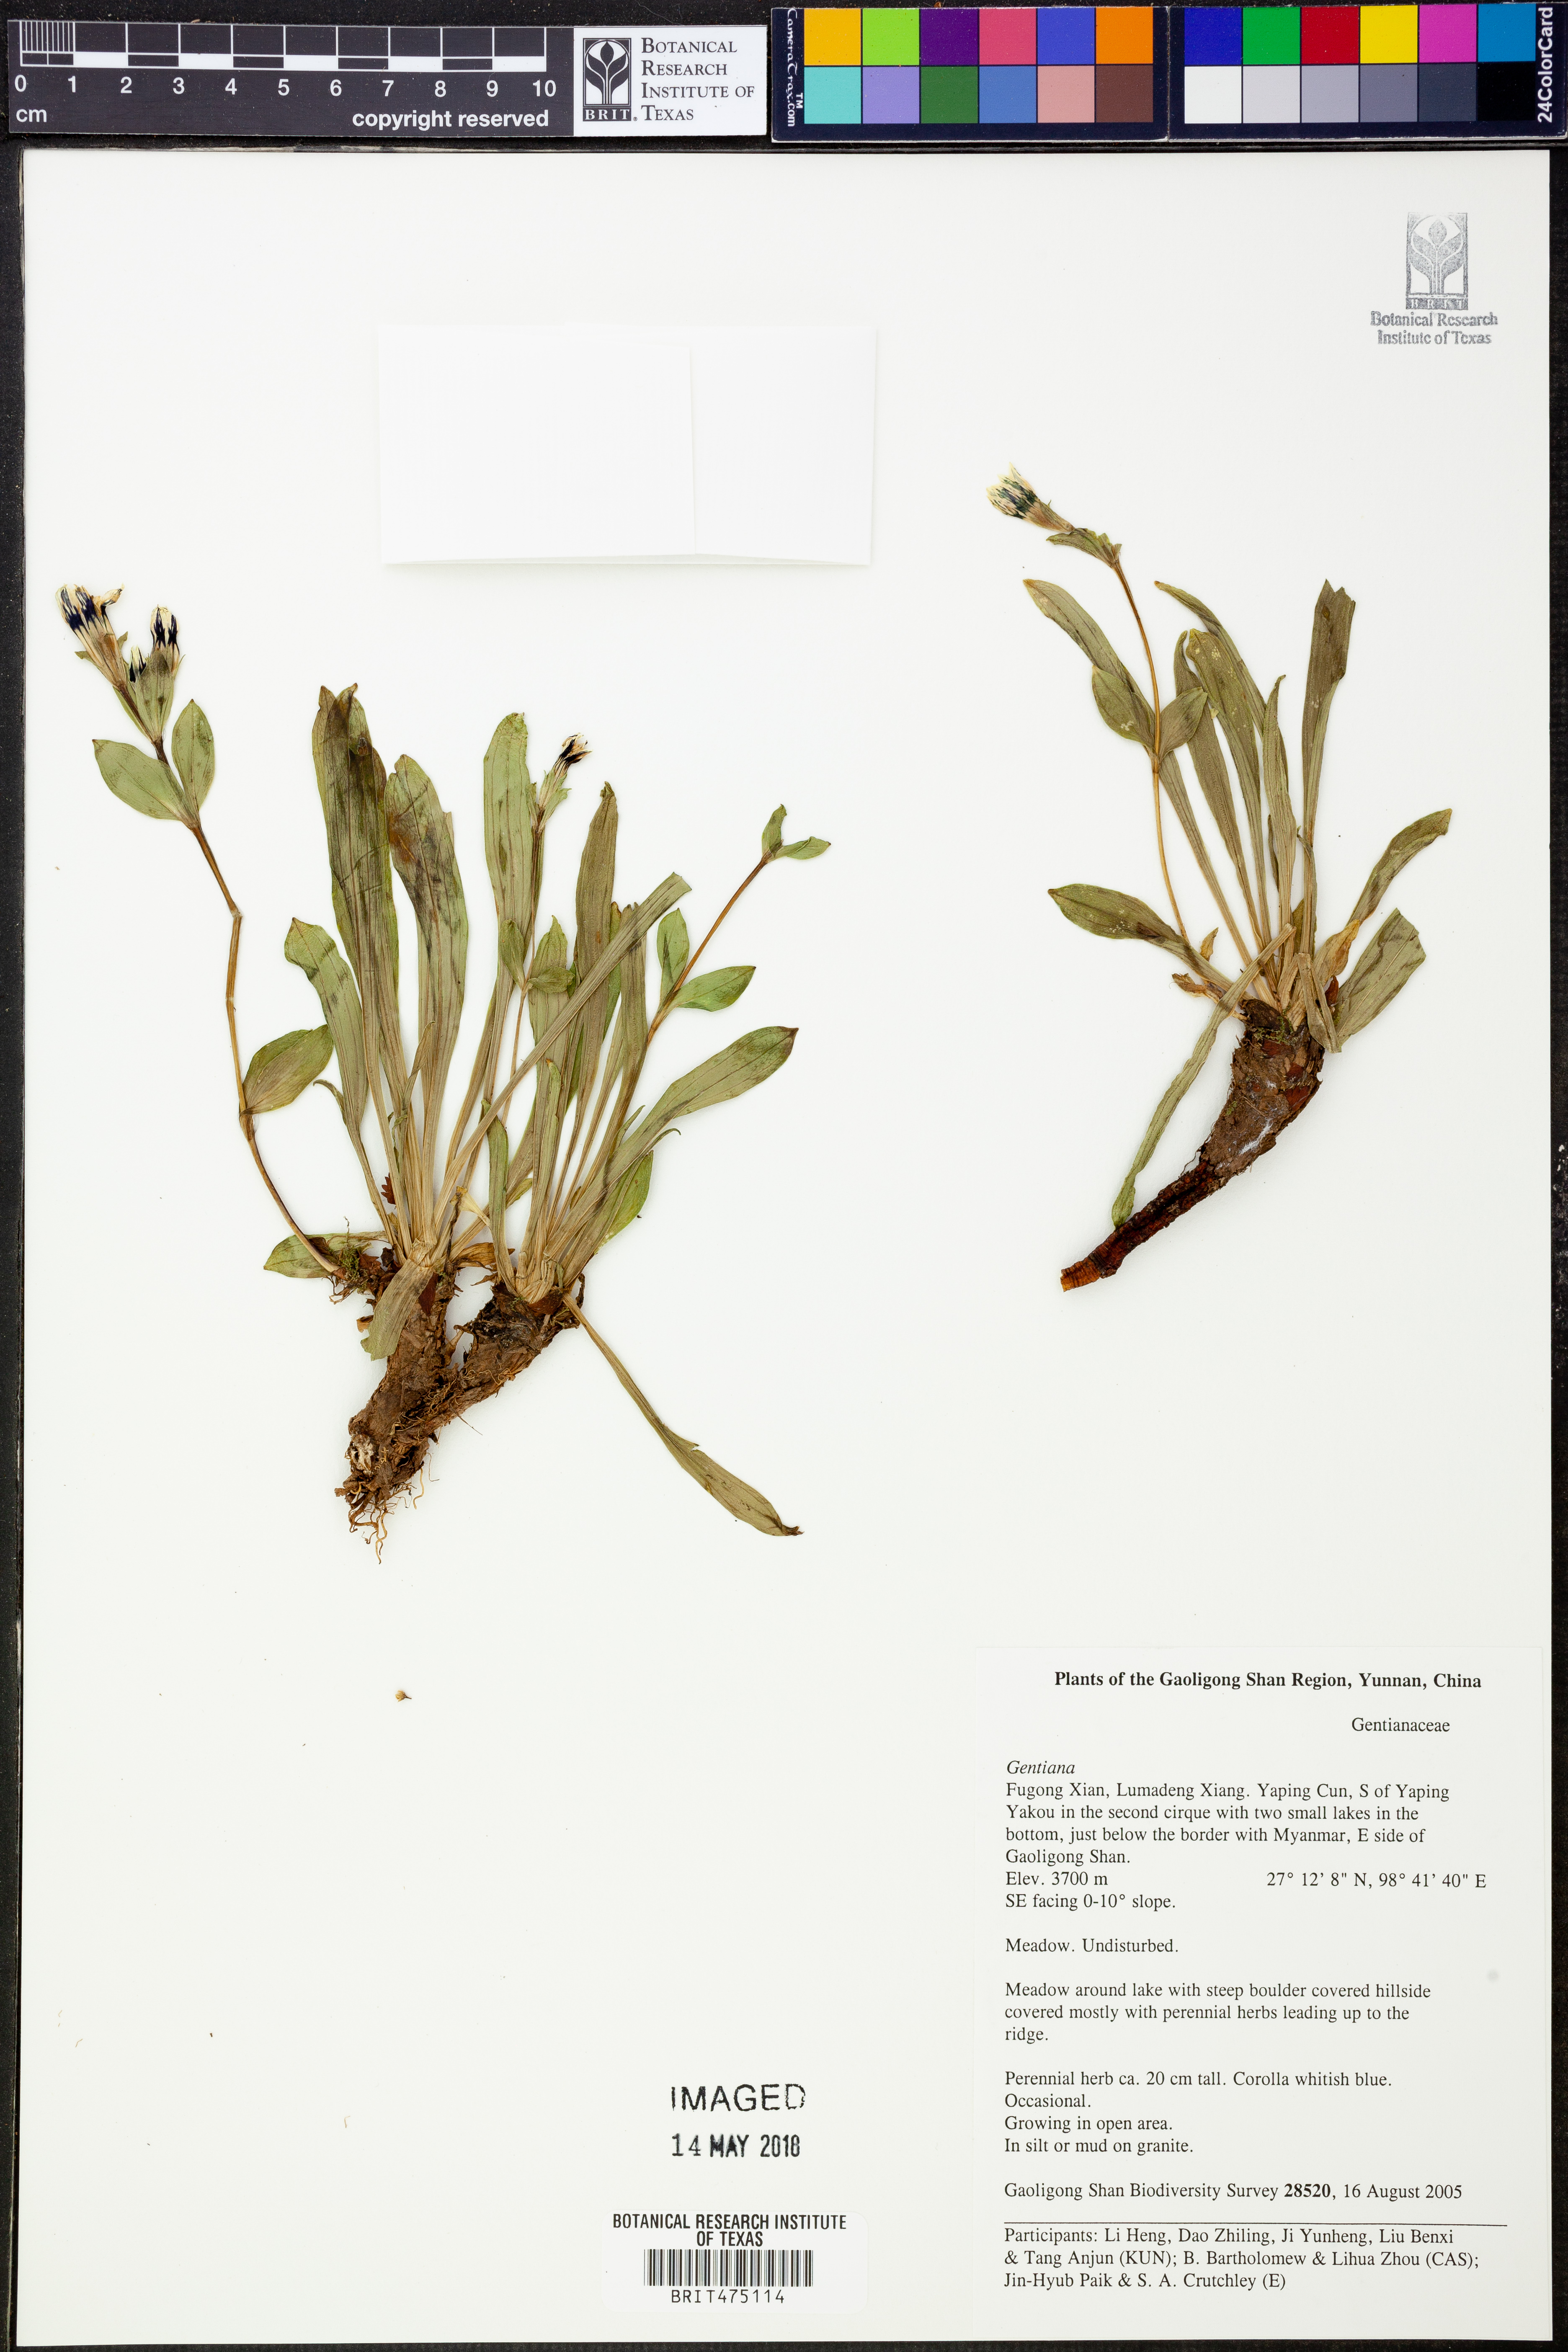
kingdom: Plantae
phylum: Tracheophyta
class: Magnoliopsida
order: Gentianales
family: Gentianaceae
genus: Gentiana
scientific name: Gentiana
